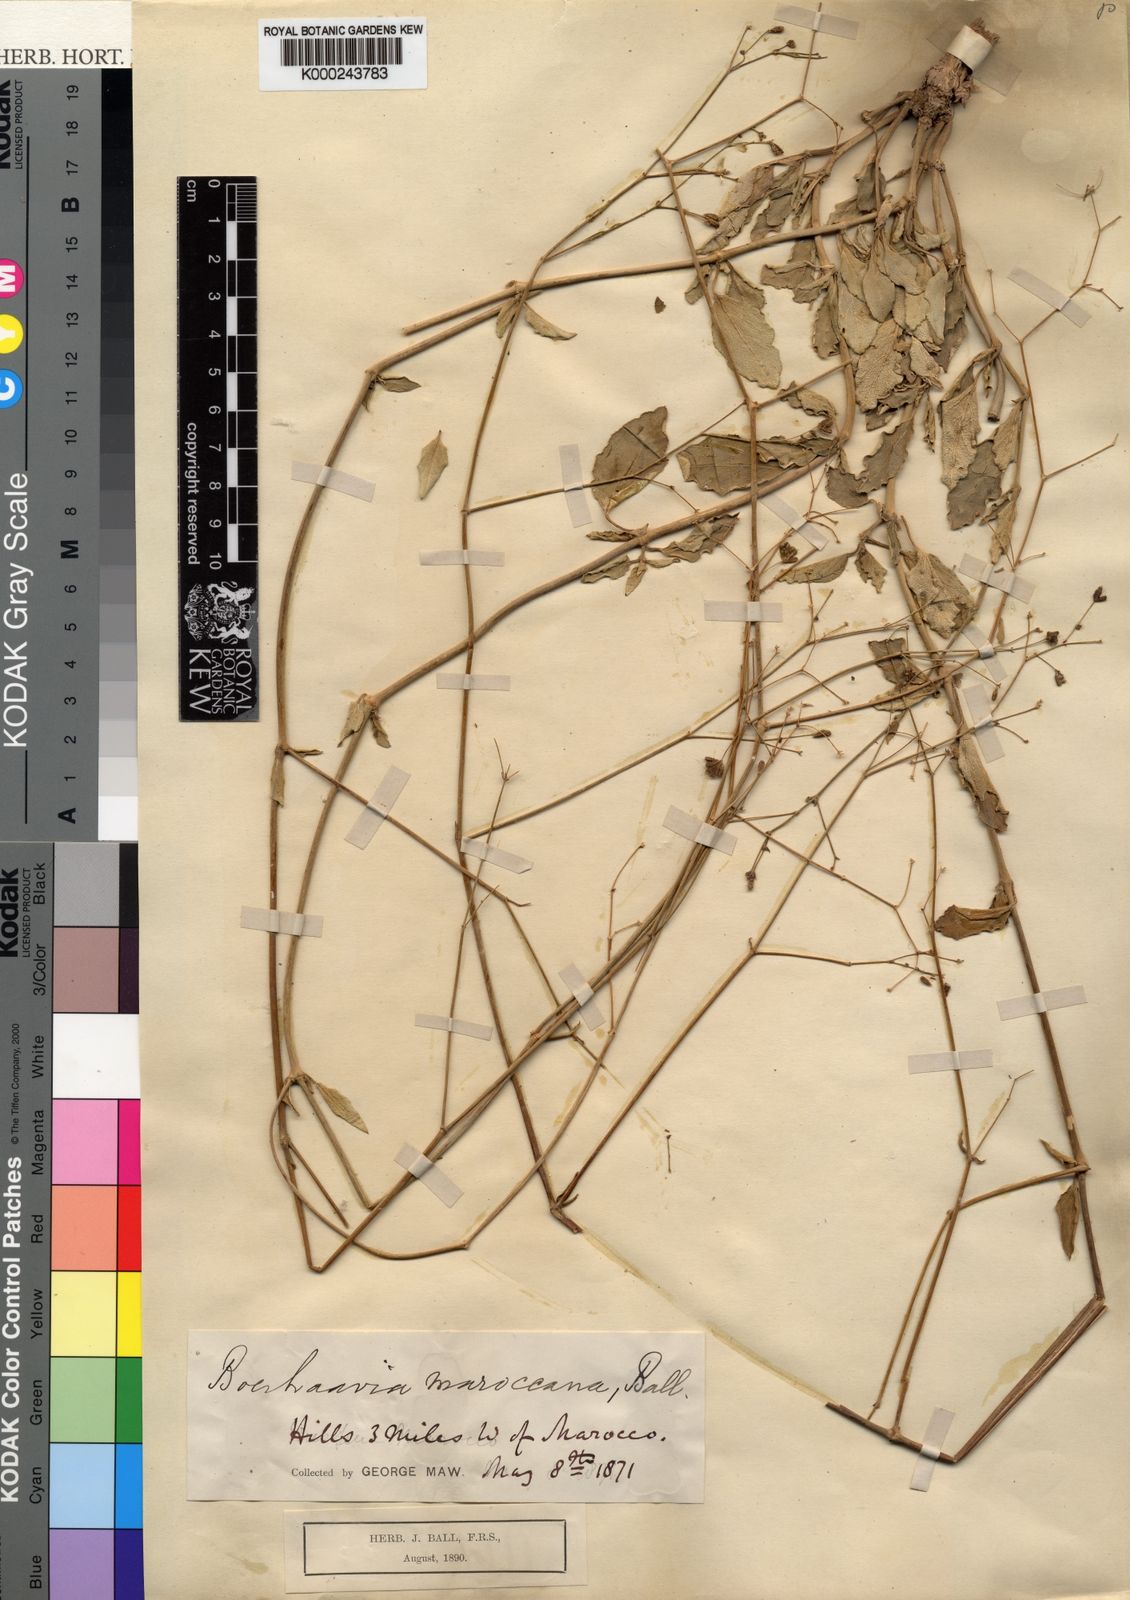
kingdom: Plantae
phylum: Tracheophyta
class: Magnoliopsida
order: Caryophyllales
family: Nyctaginaceae
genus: Boerhavia
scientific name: Boerhavia coccinea
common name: Scarlet spiderling
